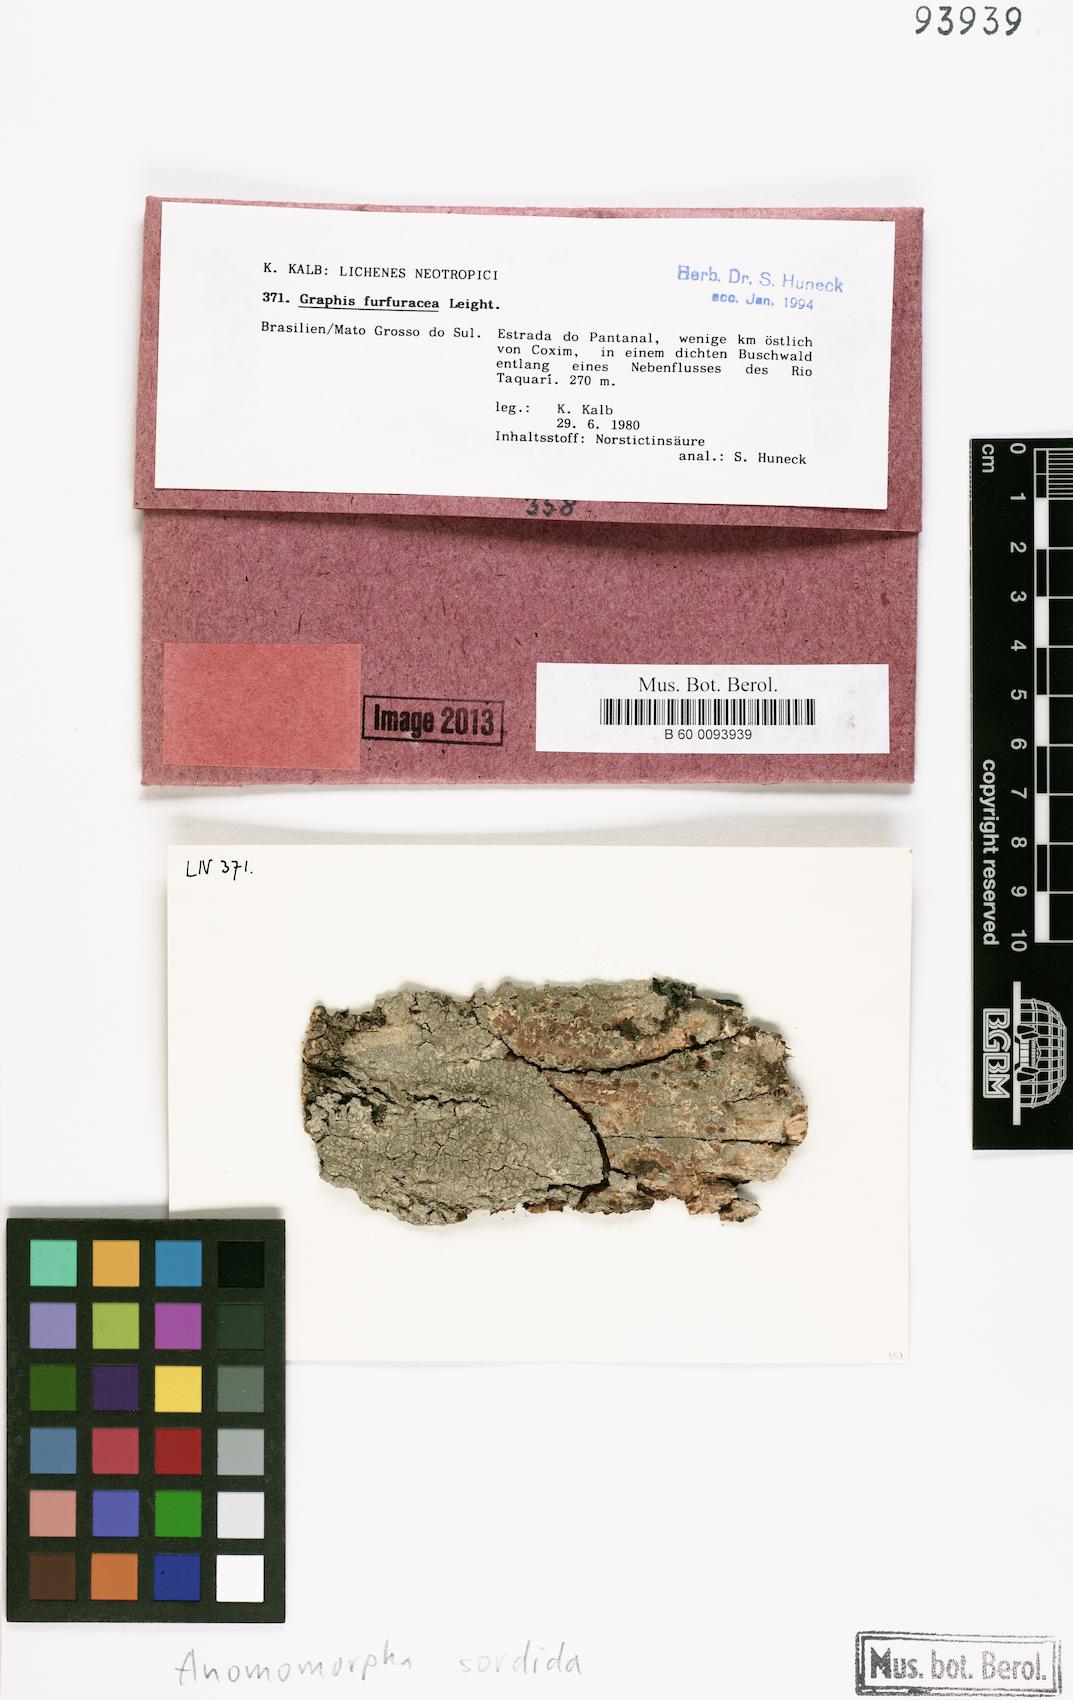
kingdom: Fungi
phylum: Ascomycota
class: Lecanoromycetes
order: Ostropales
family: Graphidaceae
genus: Anomomorpha
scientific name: Anomomorpha sordida
